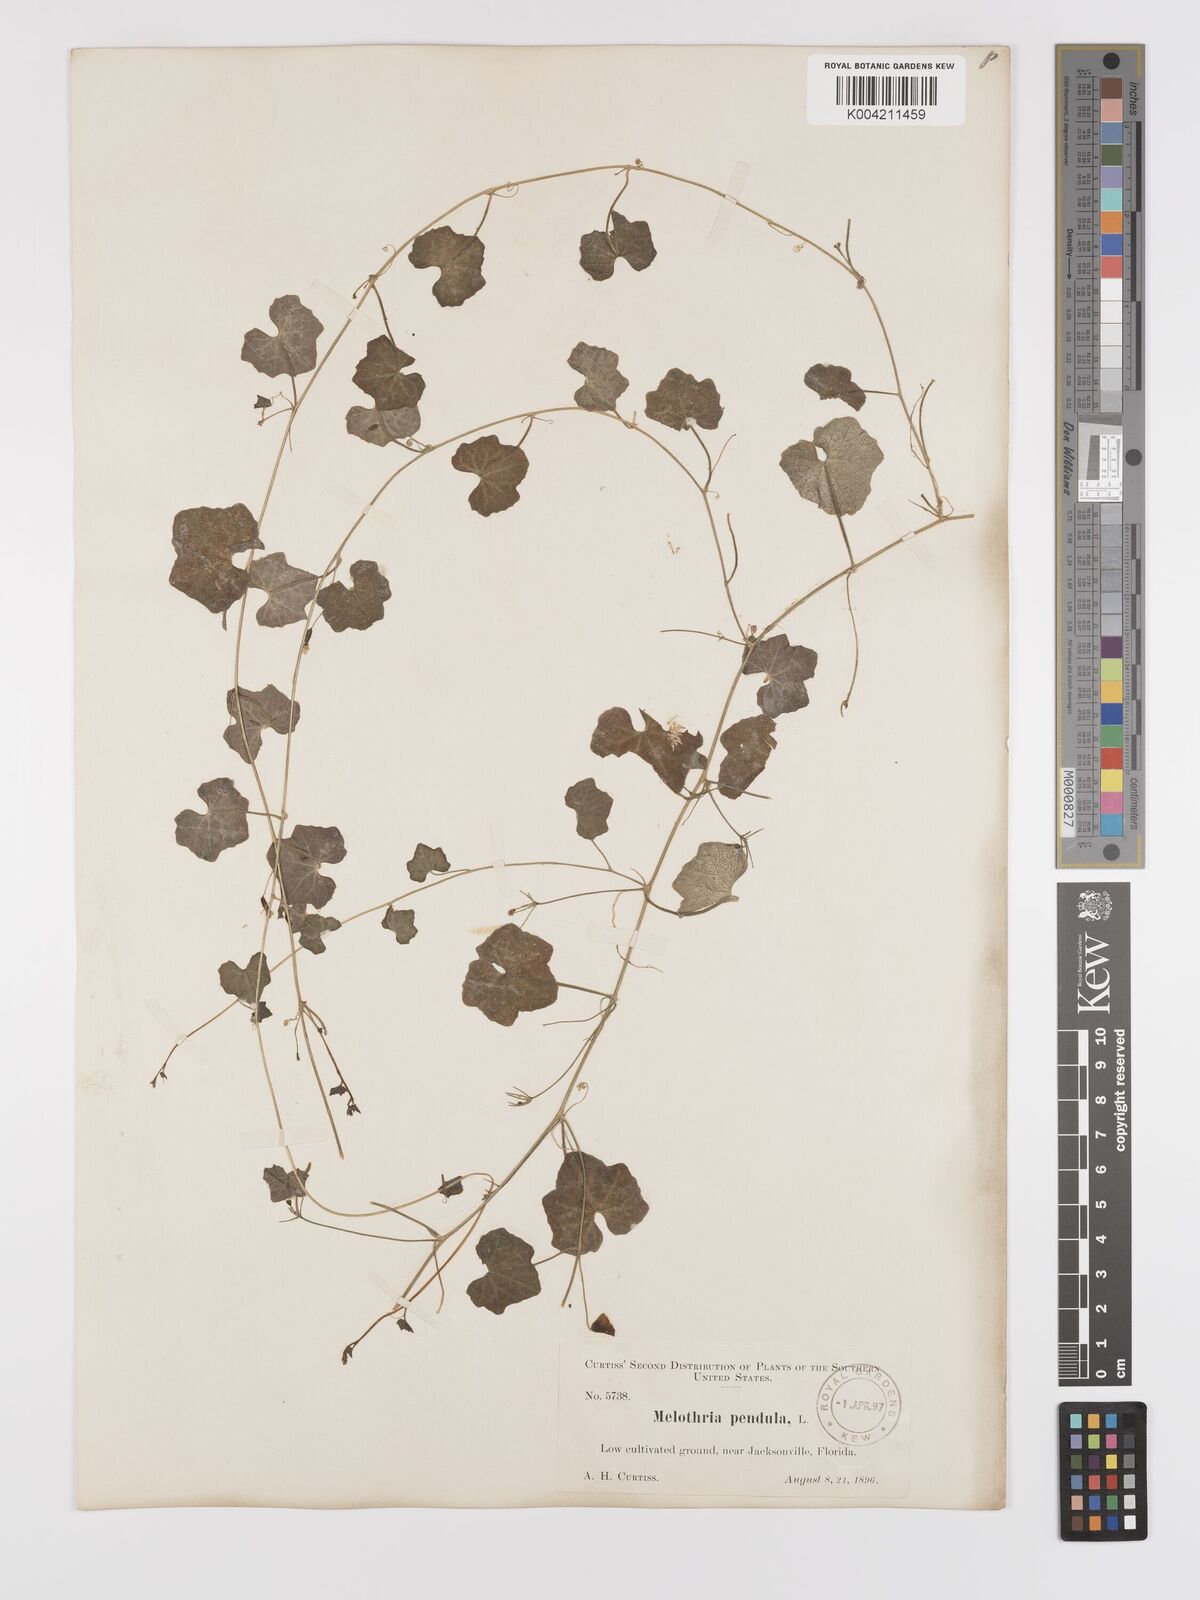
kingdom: Plantae
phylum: Tracheophyta
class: Magnoliopsida
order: Cucurbitales
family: Cucurbitaceae
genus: Melothria
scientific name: Melothria pendula
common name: Creeping-cucumber
